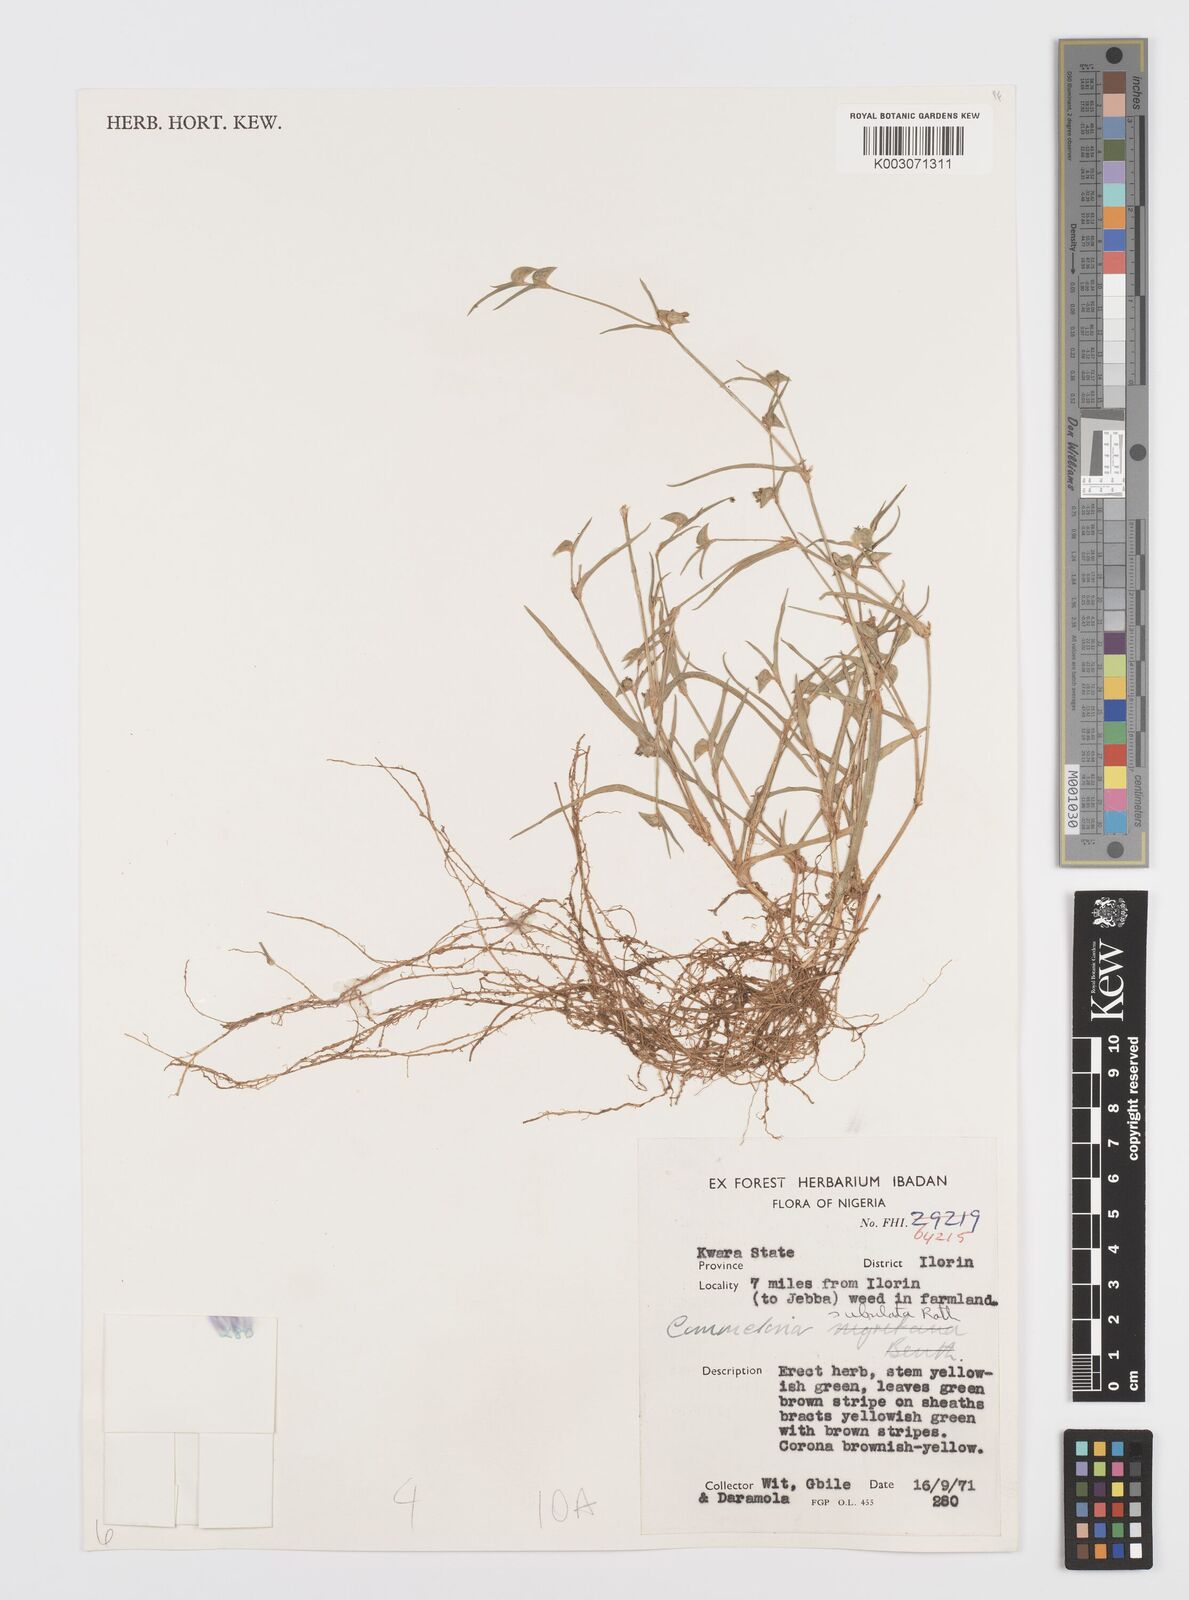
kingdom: Plantae
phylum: Tracheophyta
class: Liliopsida
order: Commelinales
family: Commelinaceae
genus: Commelina
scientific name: Commelina subulata
